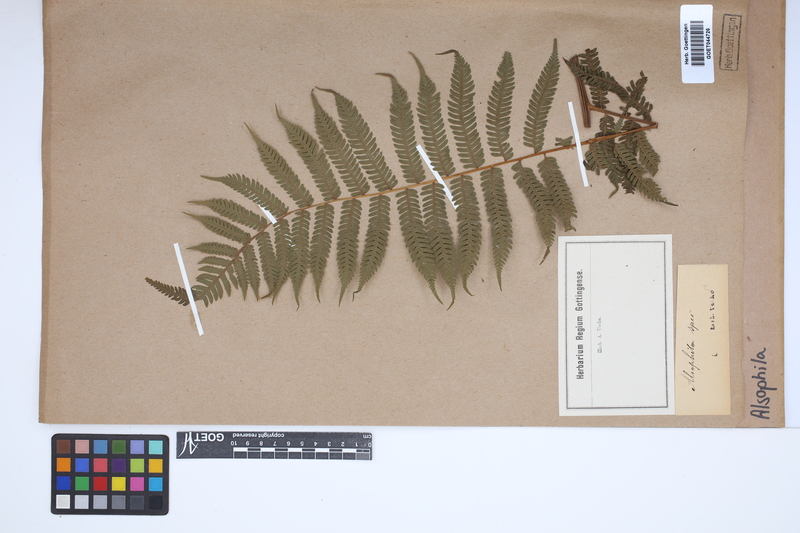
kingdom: Plantae
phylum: Tracheophyta
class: Polypodiopsida
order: Cyatheales
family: Cyatheaceae
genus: Alsophila
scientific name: Alsophila
